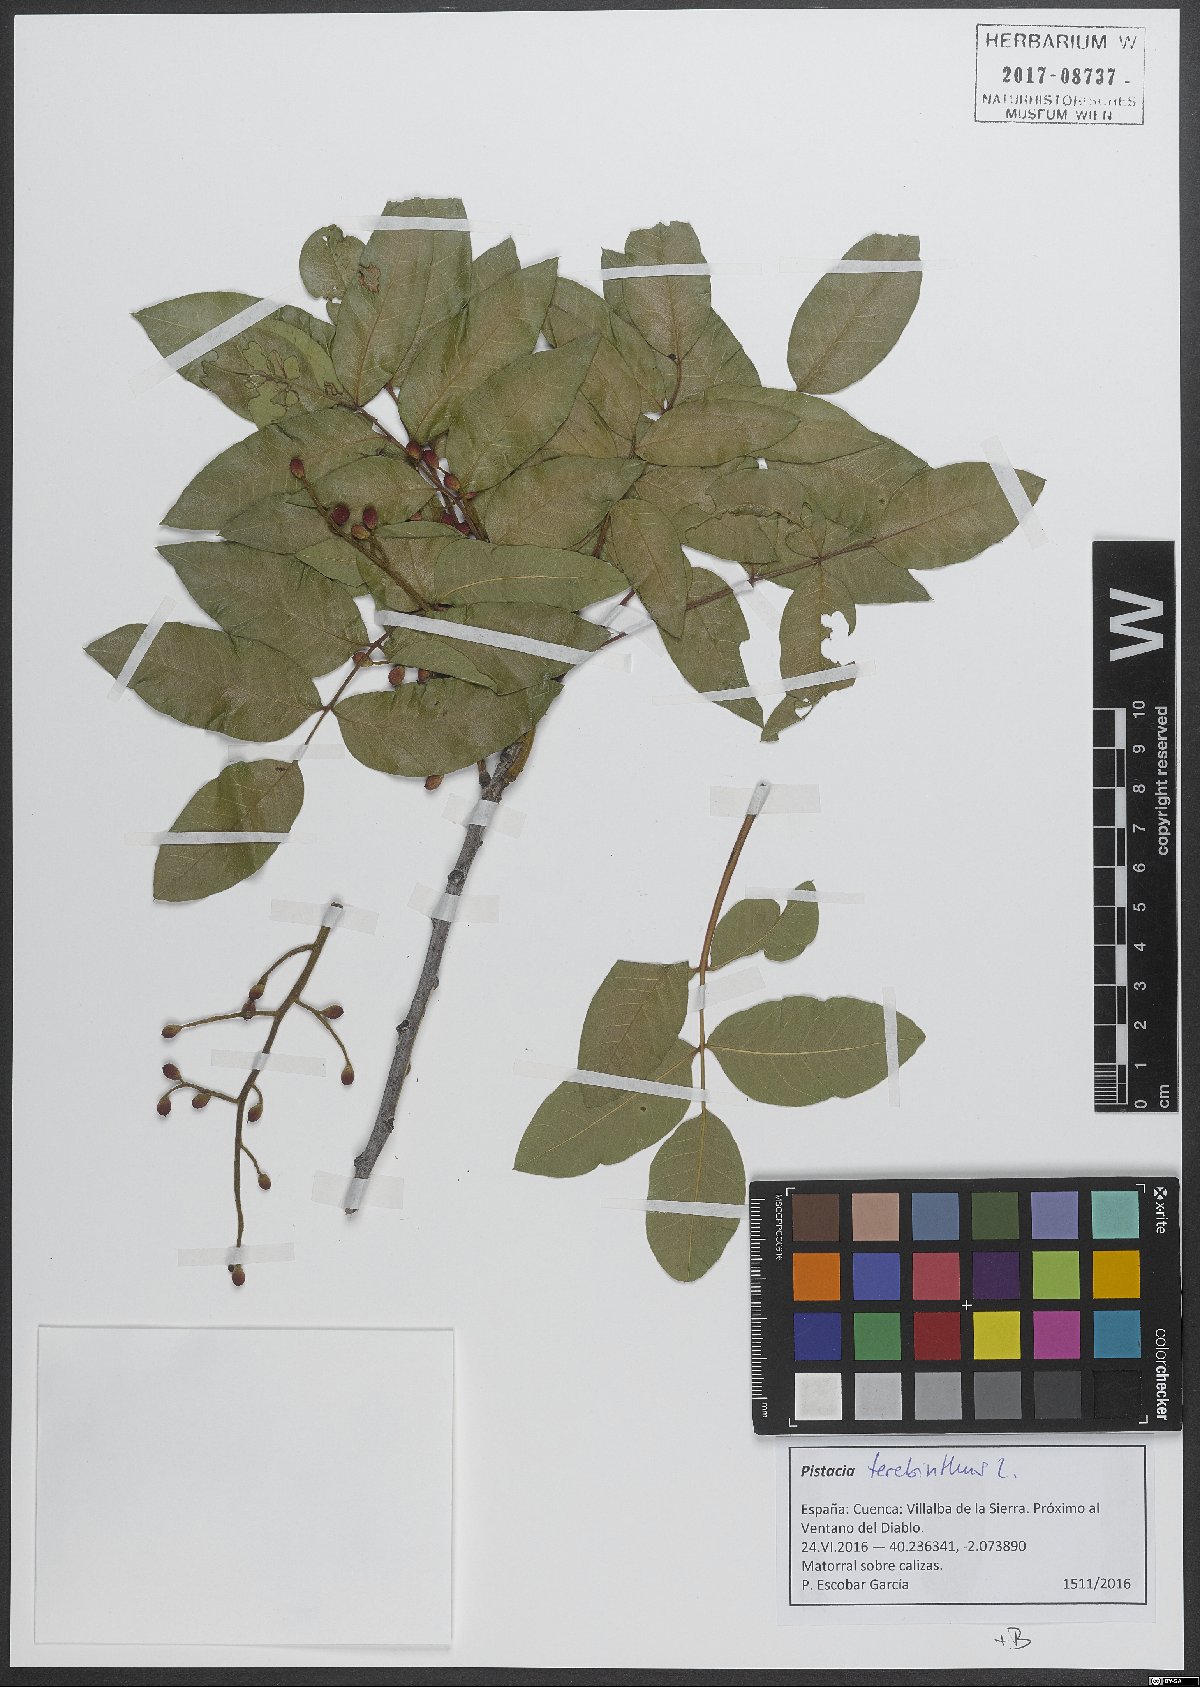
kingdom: Plantae
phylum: Tracheophyta
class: Magnoliopsida
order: Sapindales
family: Anacardiaceae
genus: Pistacia
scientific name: Pistacia terebinthus
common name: Terebinth
